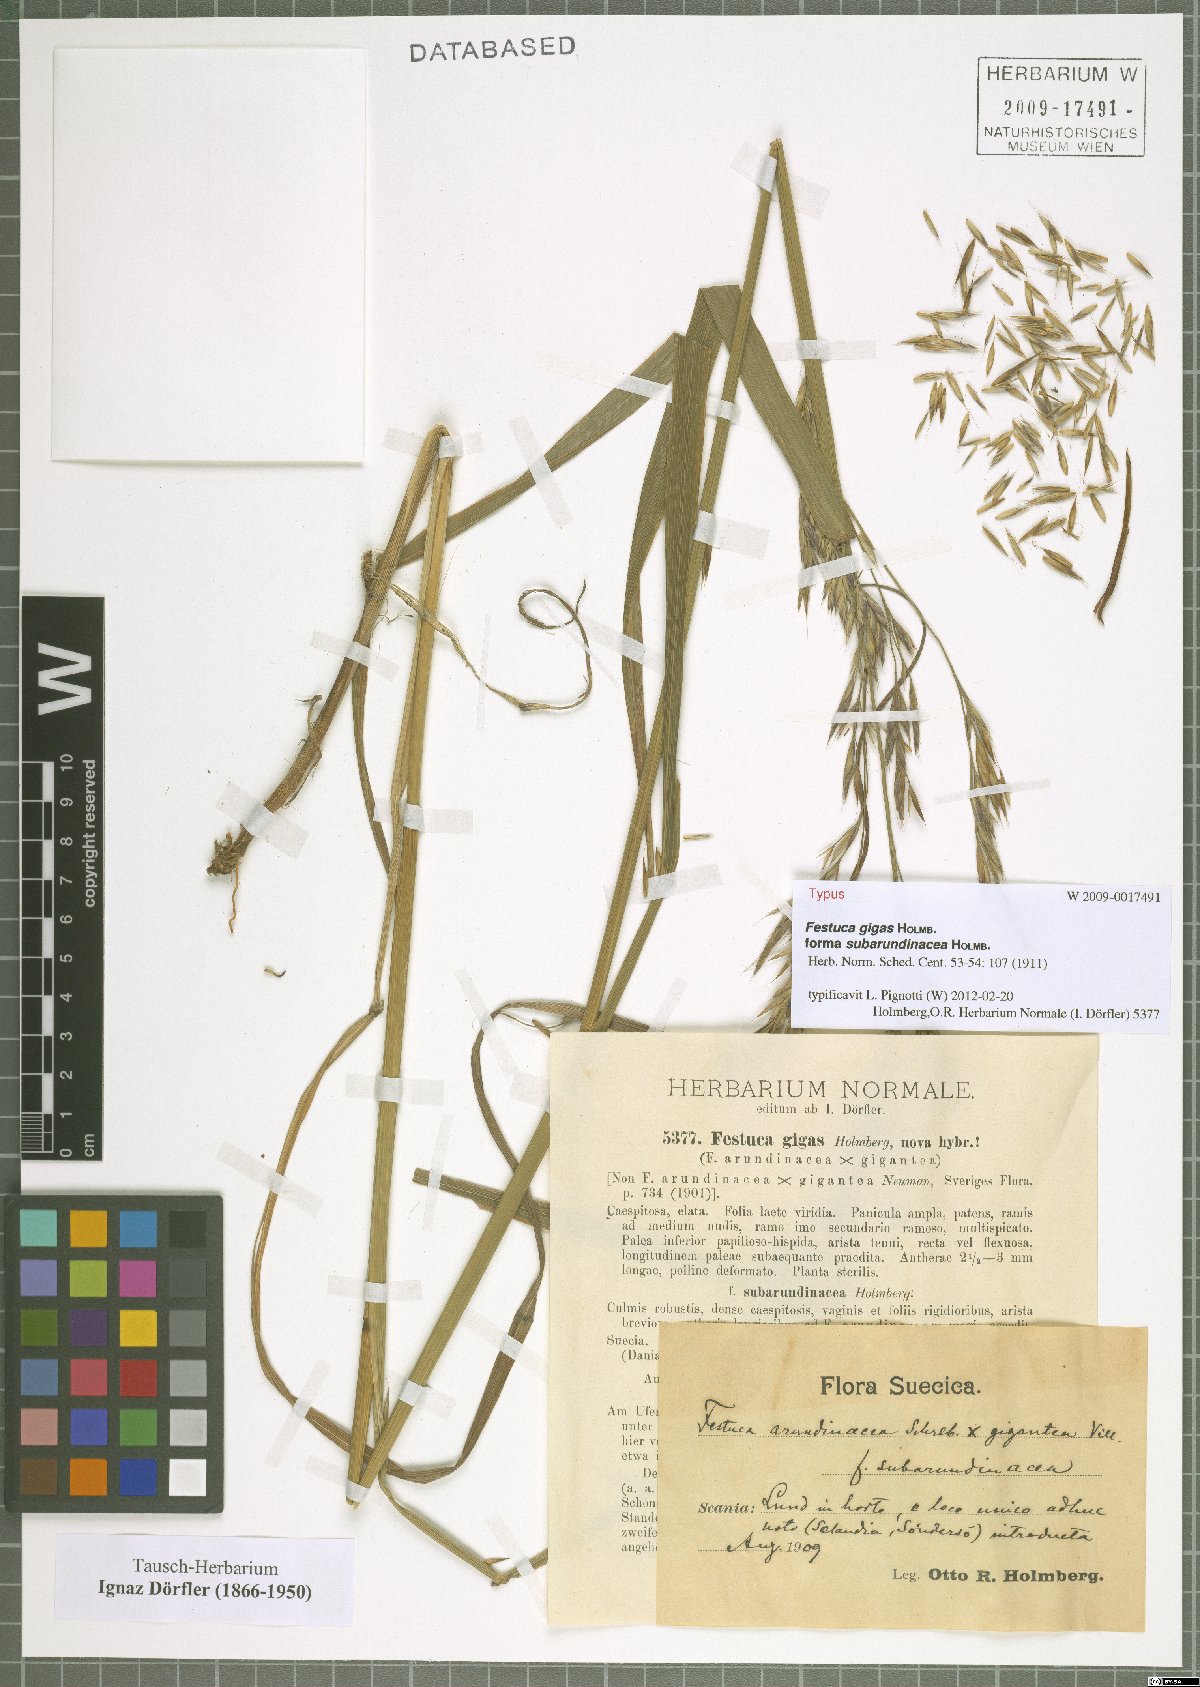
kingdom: Plantae
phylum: Tracheophyta
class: Liliopsida
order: Poales
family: Poaceae
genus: Lolium
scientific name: Lolium fleischeri
